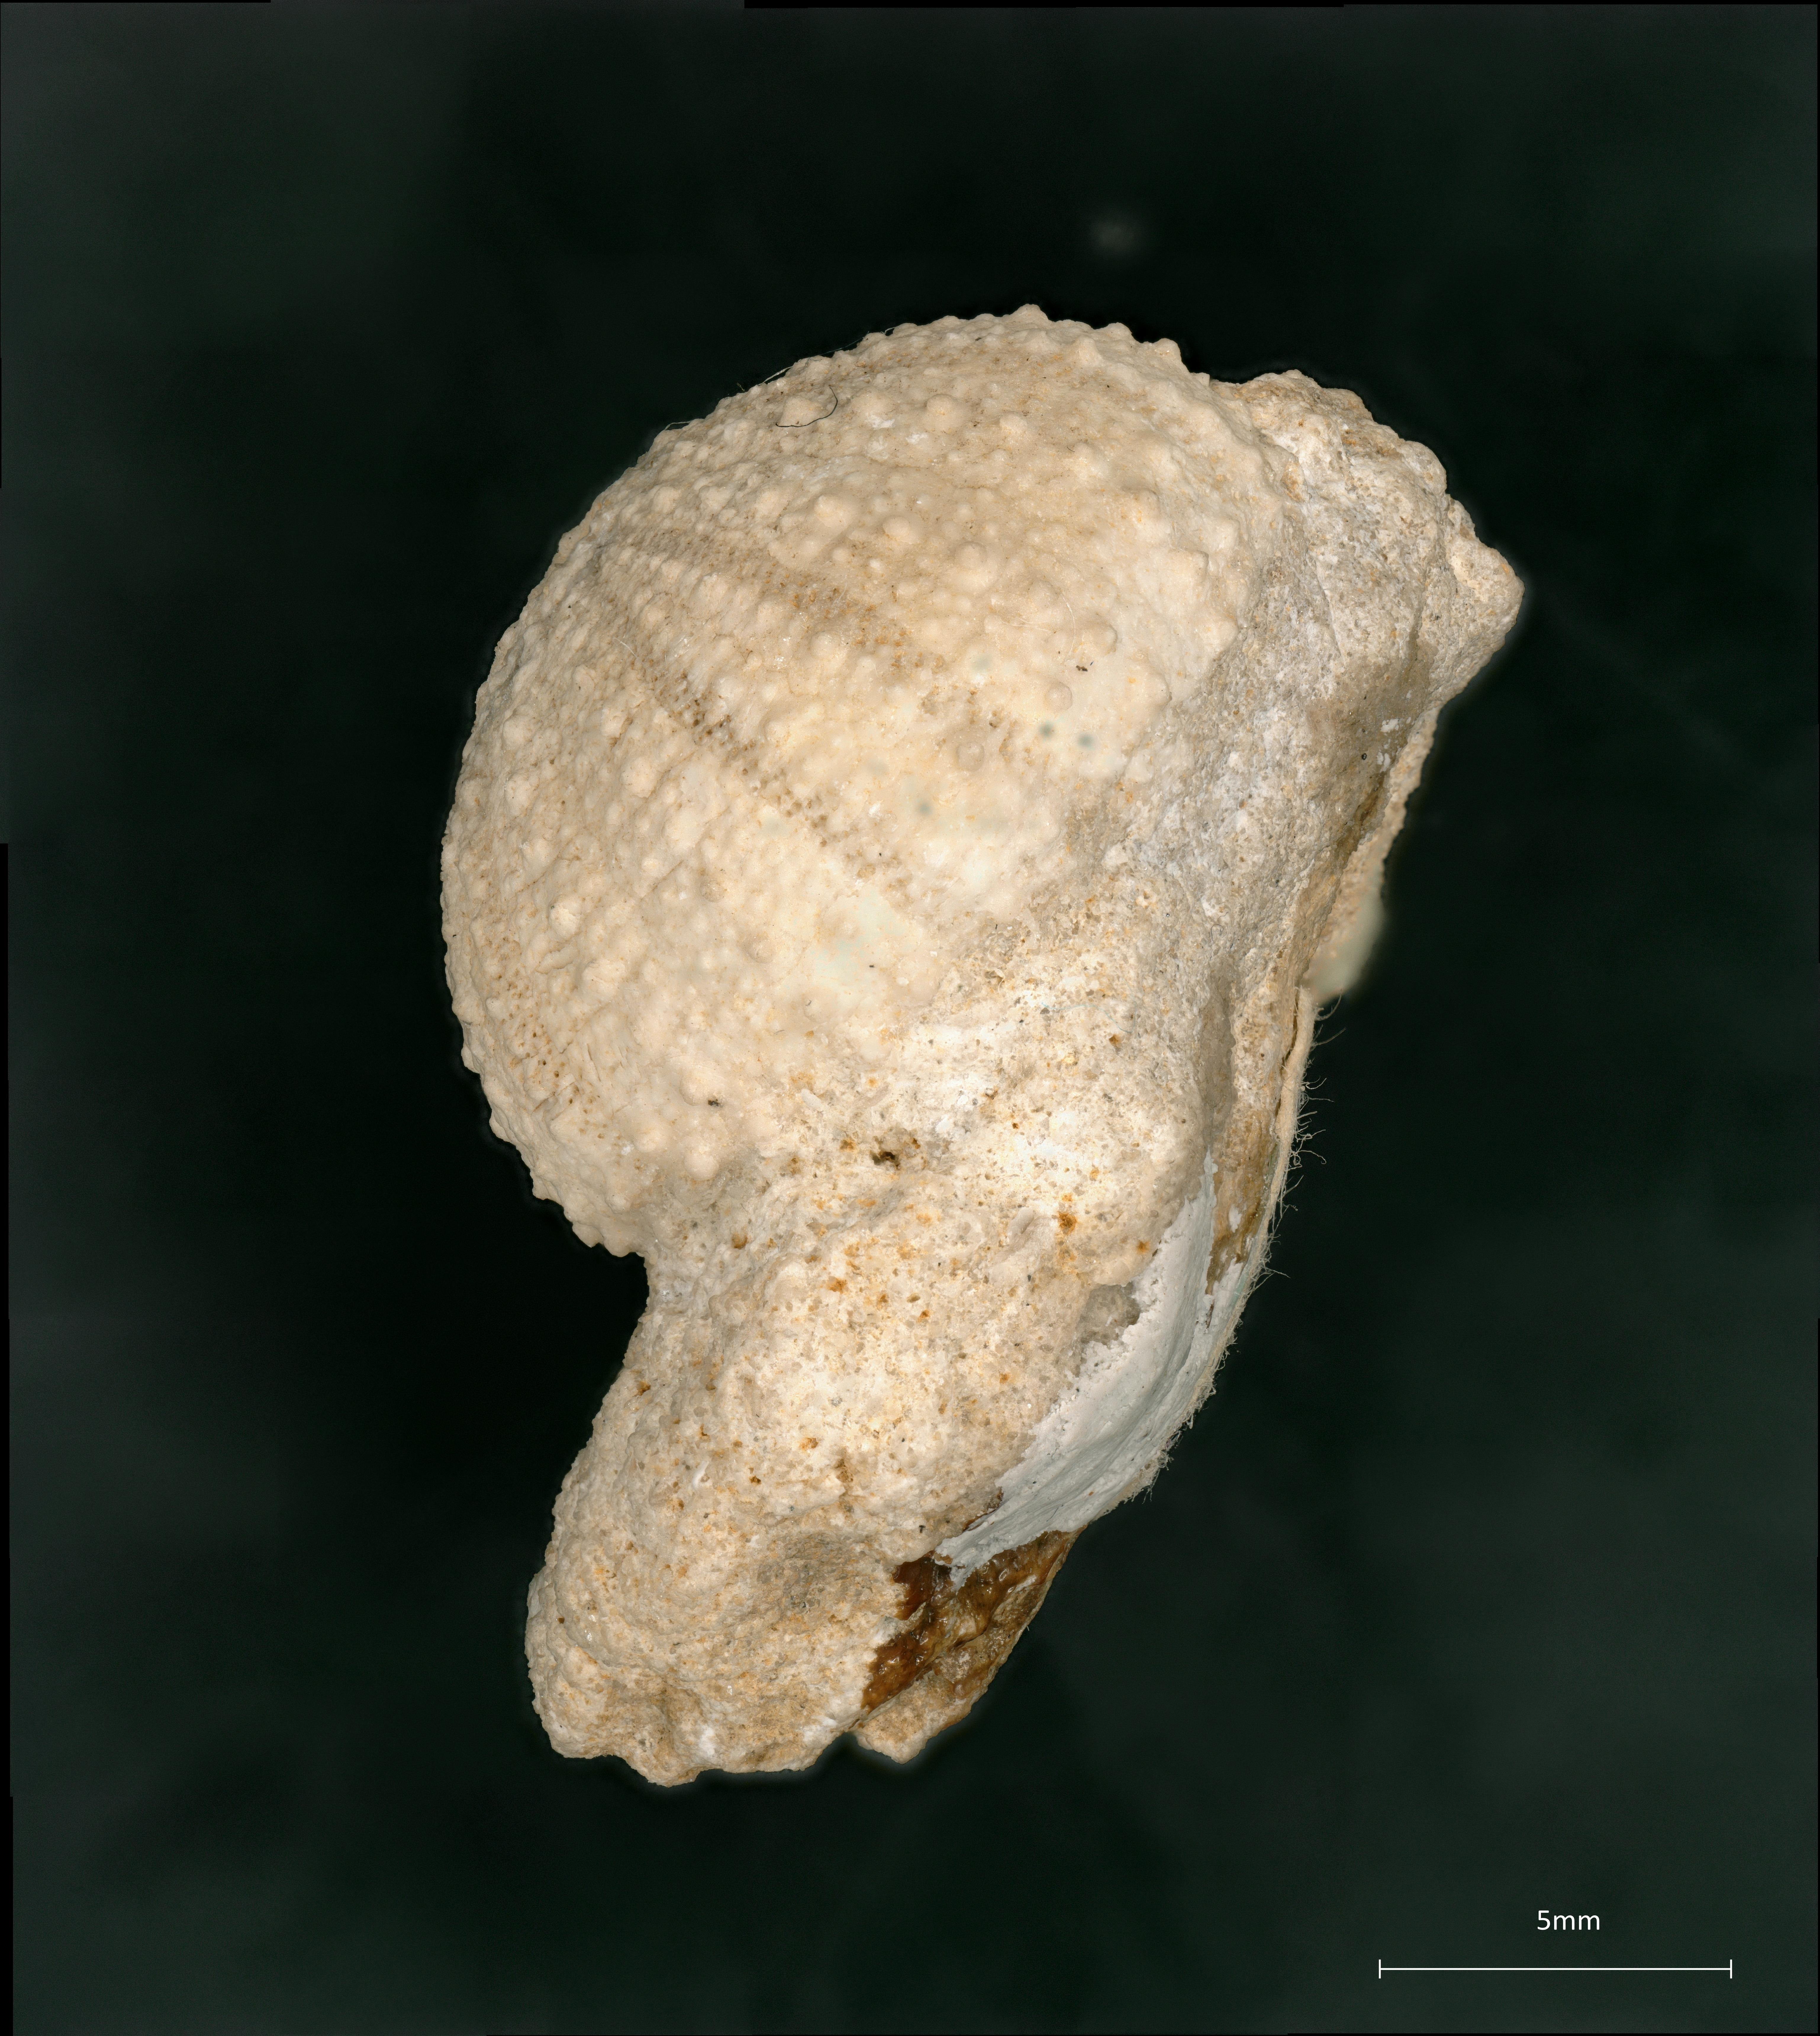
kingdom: Animalia
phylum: Echinodermata
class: Echinoidea
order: Stomopneustoida
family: Stomechinidae
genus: Stomechinus
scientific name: Stomechinus germinans
